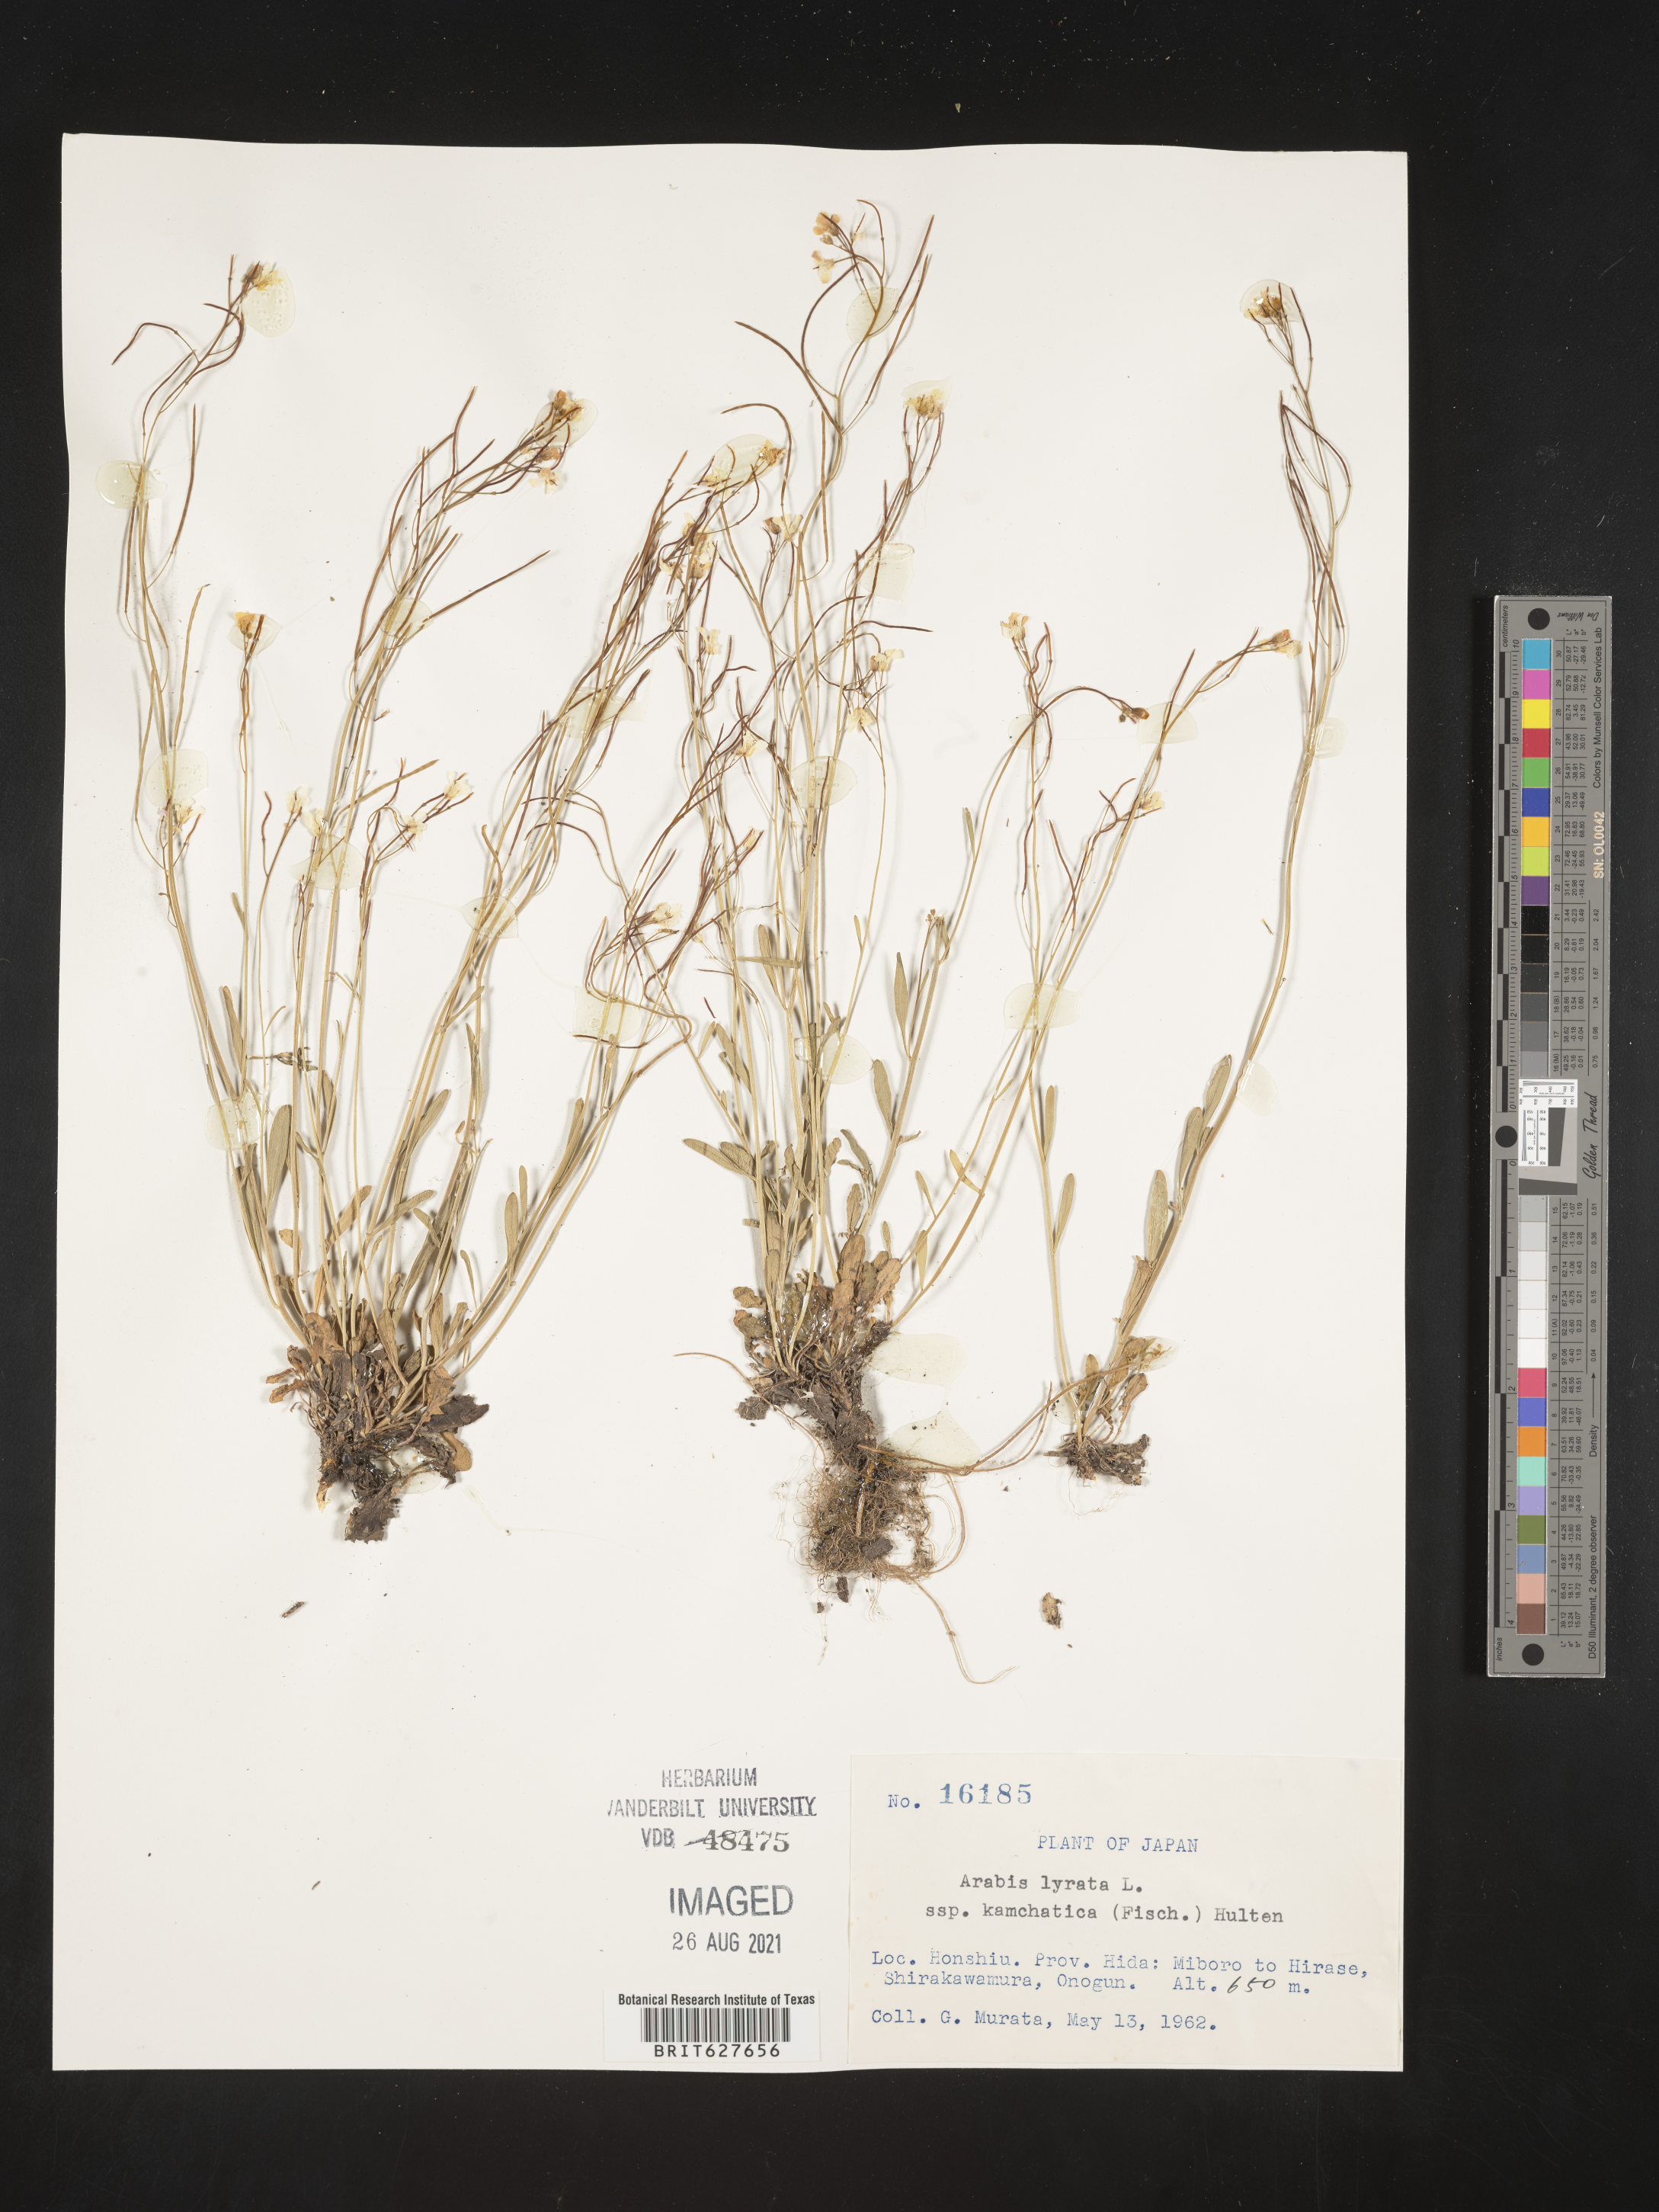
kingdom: Plantae
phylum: Tracheophyta
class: Magnoliopsida
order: Brassicales
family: Brassicaceae
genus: Arabidopsis
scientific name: Arabidopsis lyrata
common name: Lyrate rockcress
